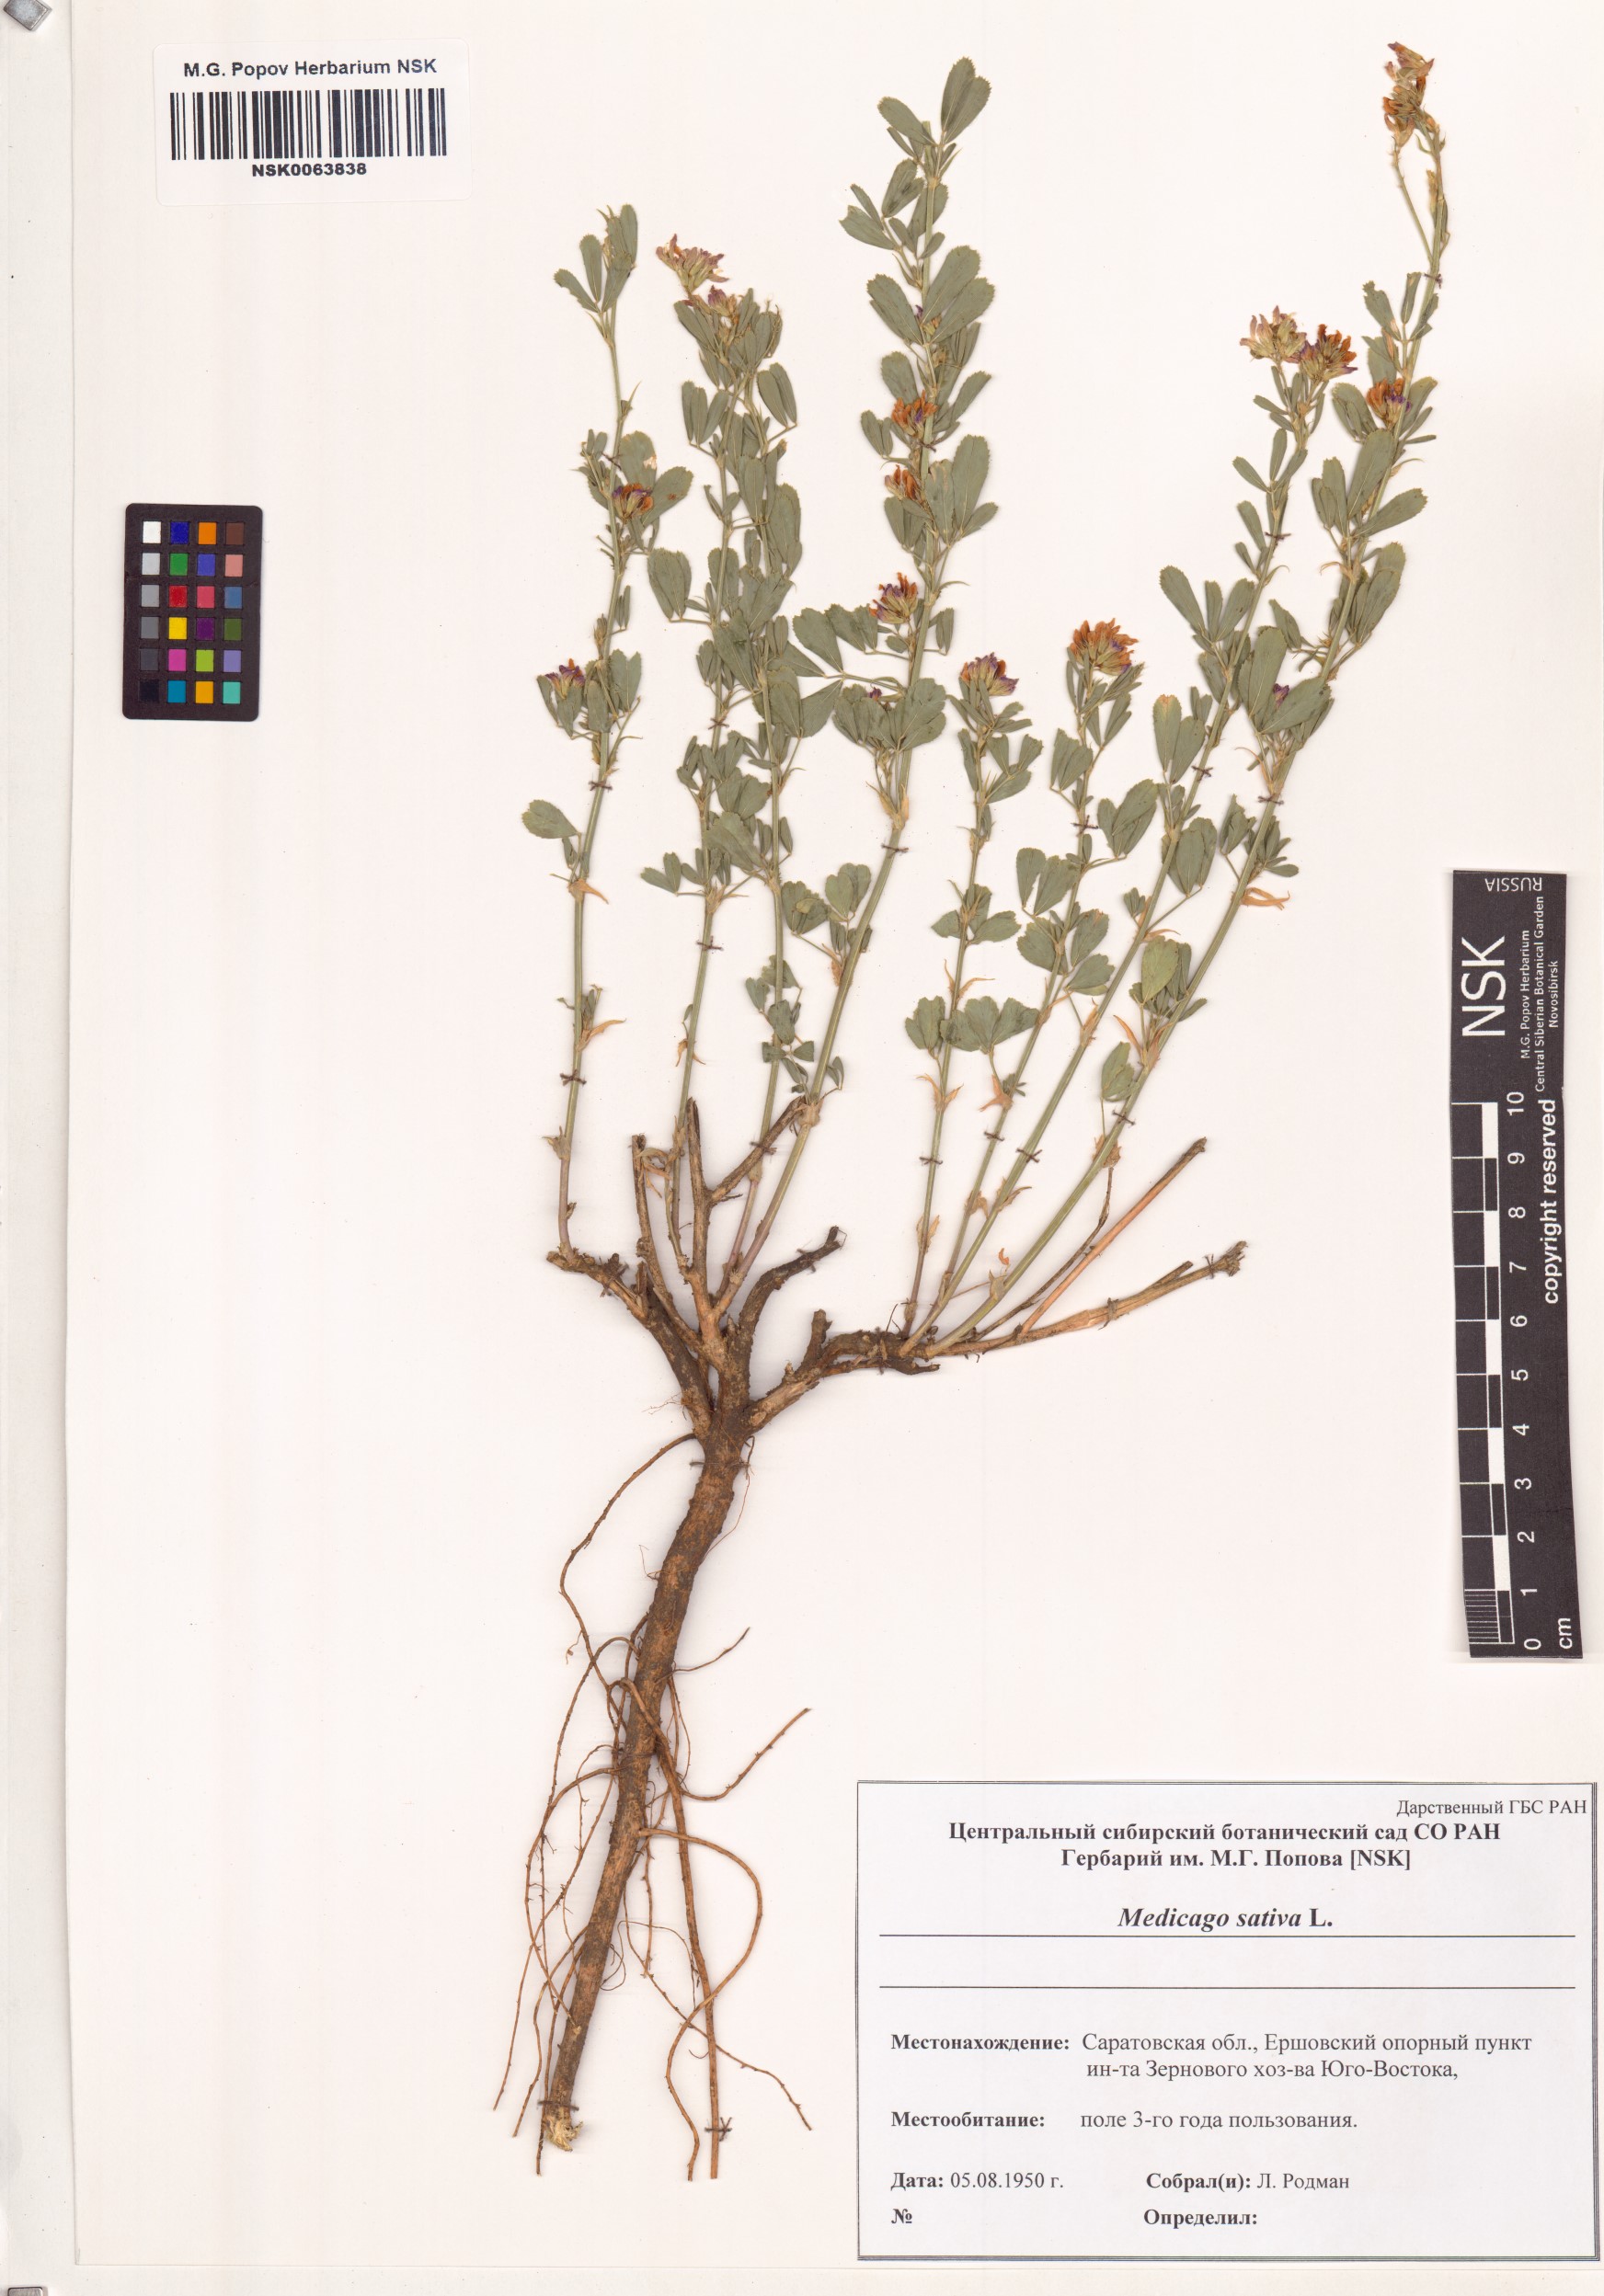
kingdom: Plantae
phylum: Tracheophyta
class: Magnoliopsida
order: Fabales
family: Fabaceae
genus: Medicago
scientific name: Medicago sativa
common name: Alfalfa
